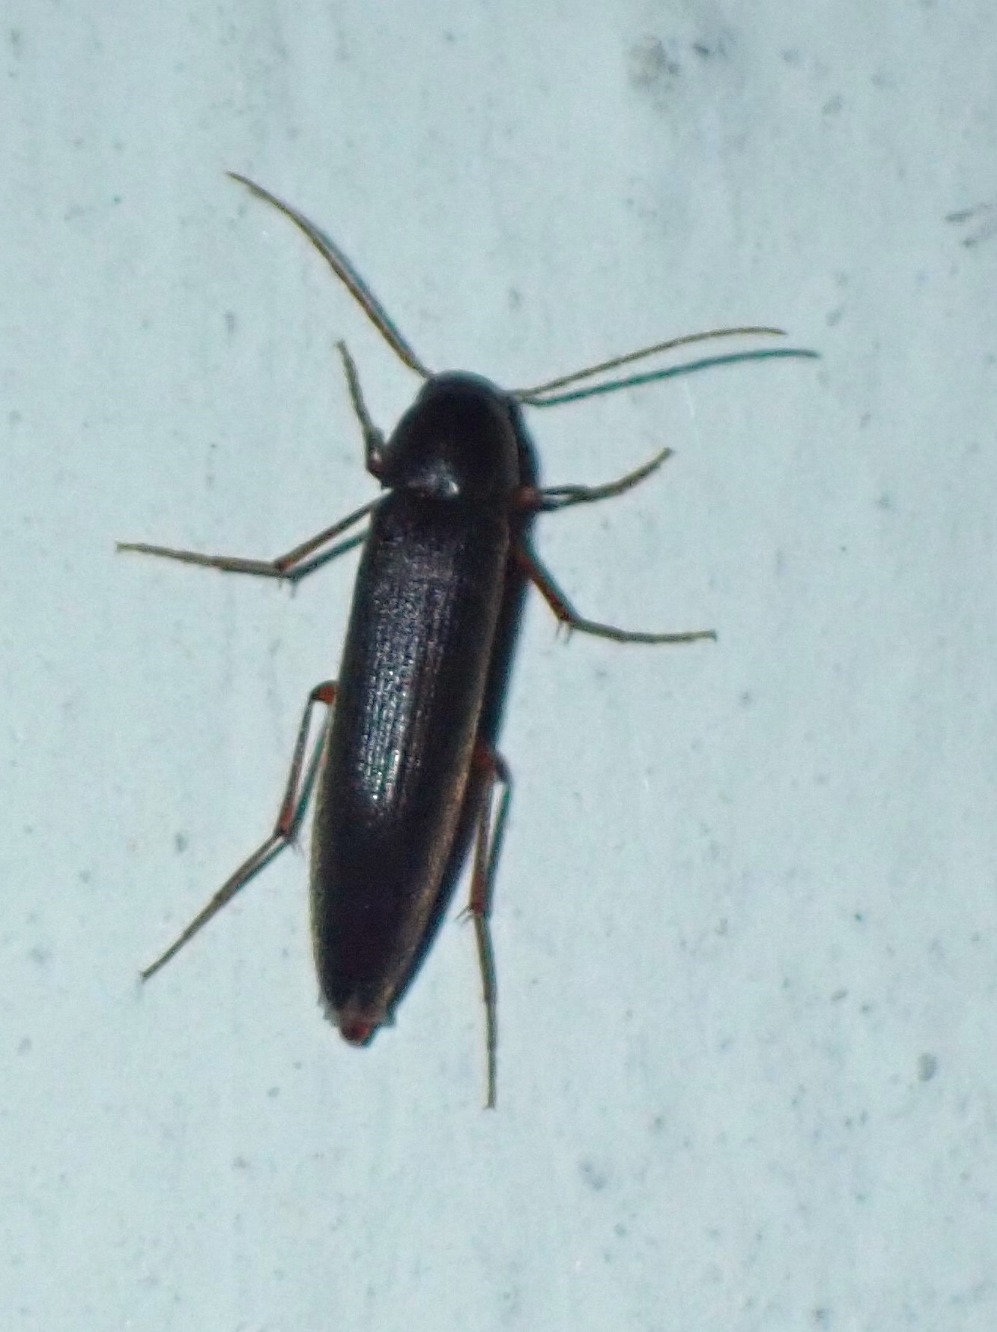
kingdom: Animalia
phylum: Arthropoda
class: Insecta
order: Coleoptera
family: Melandryidae
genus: Serropalpus
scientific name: Serropalpus barbatus
